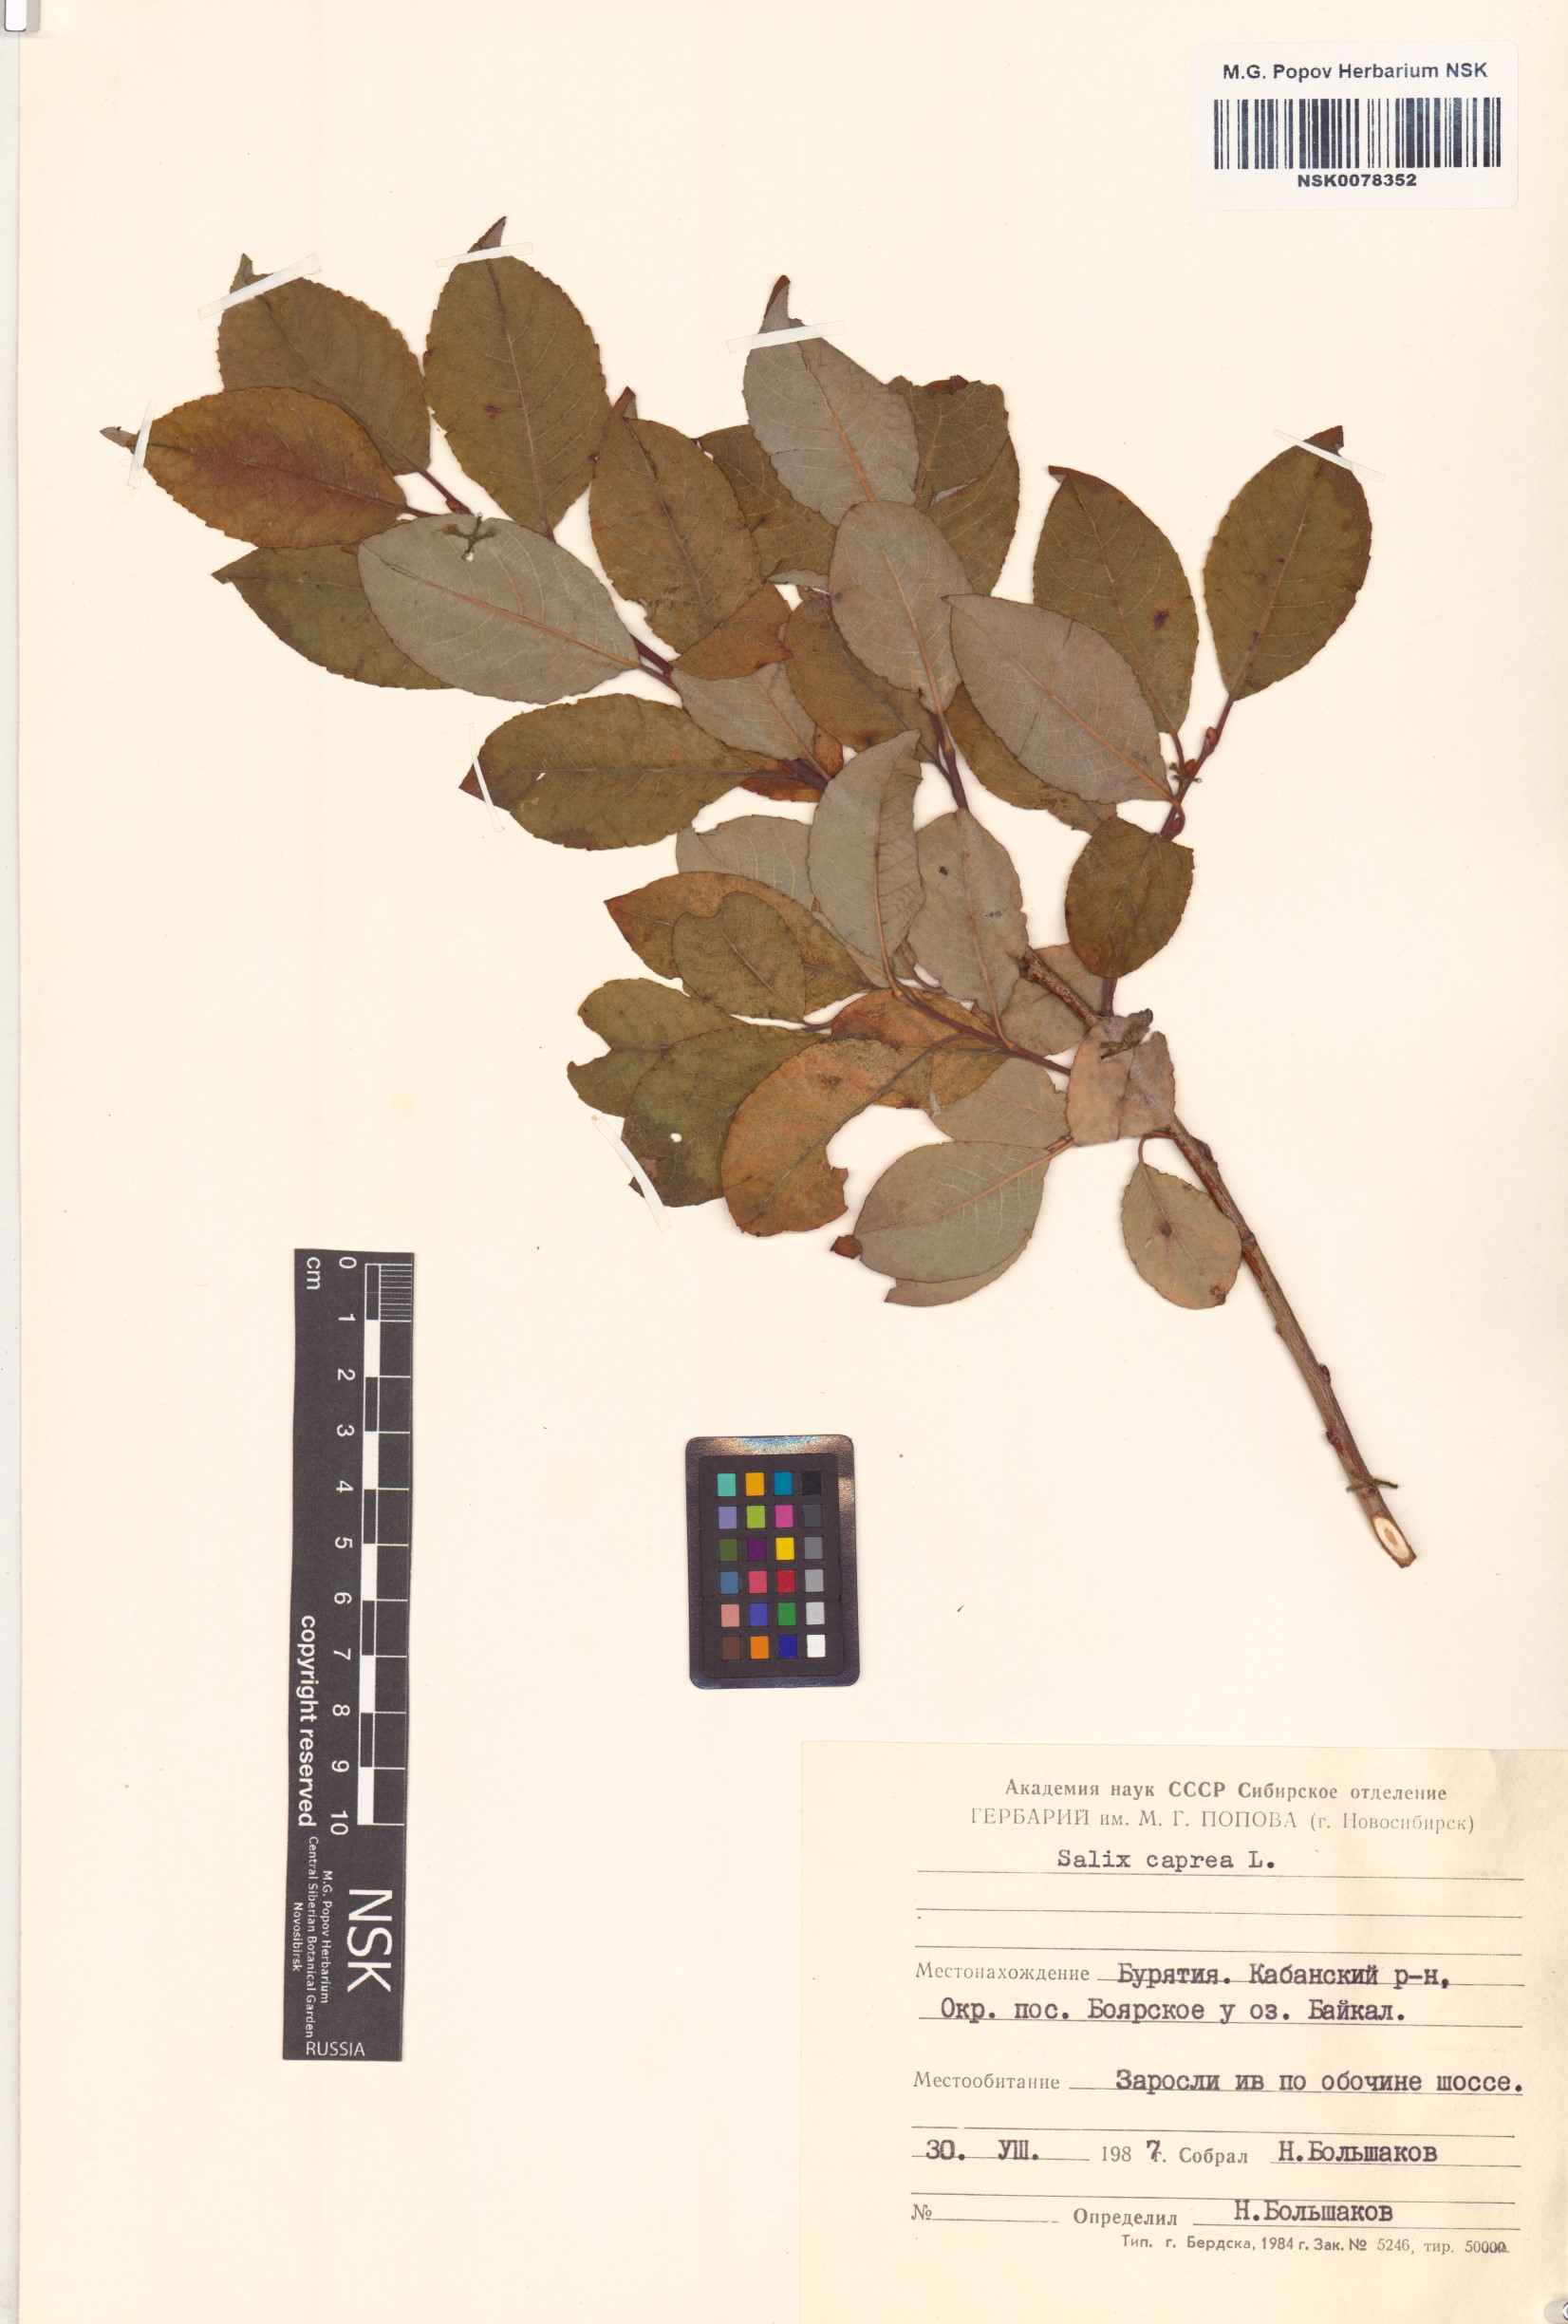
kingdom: Plantae
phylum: Tracheophyta
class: Magnoliopsida
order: Malpighiales
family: Salicaceae
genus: Salix
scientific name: Salix caprea
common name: Goat willow
